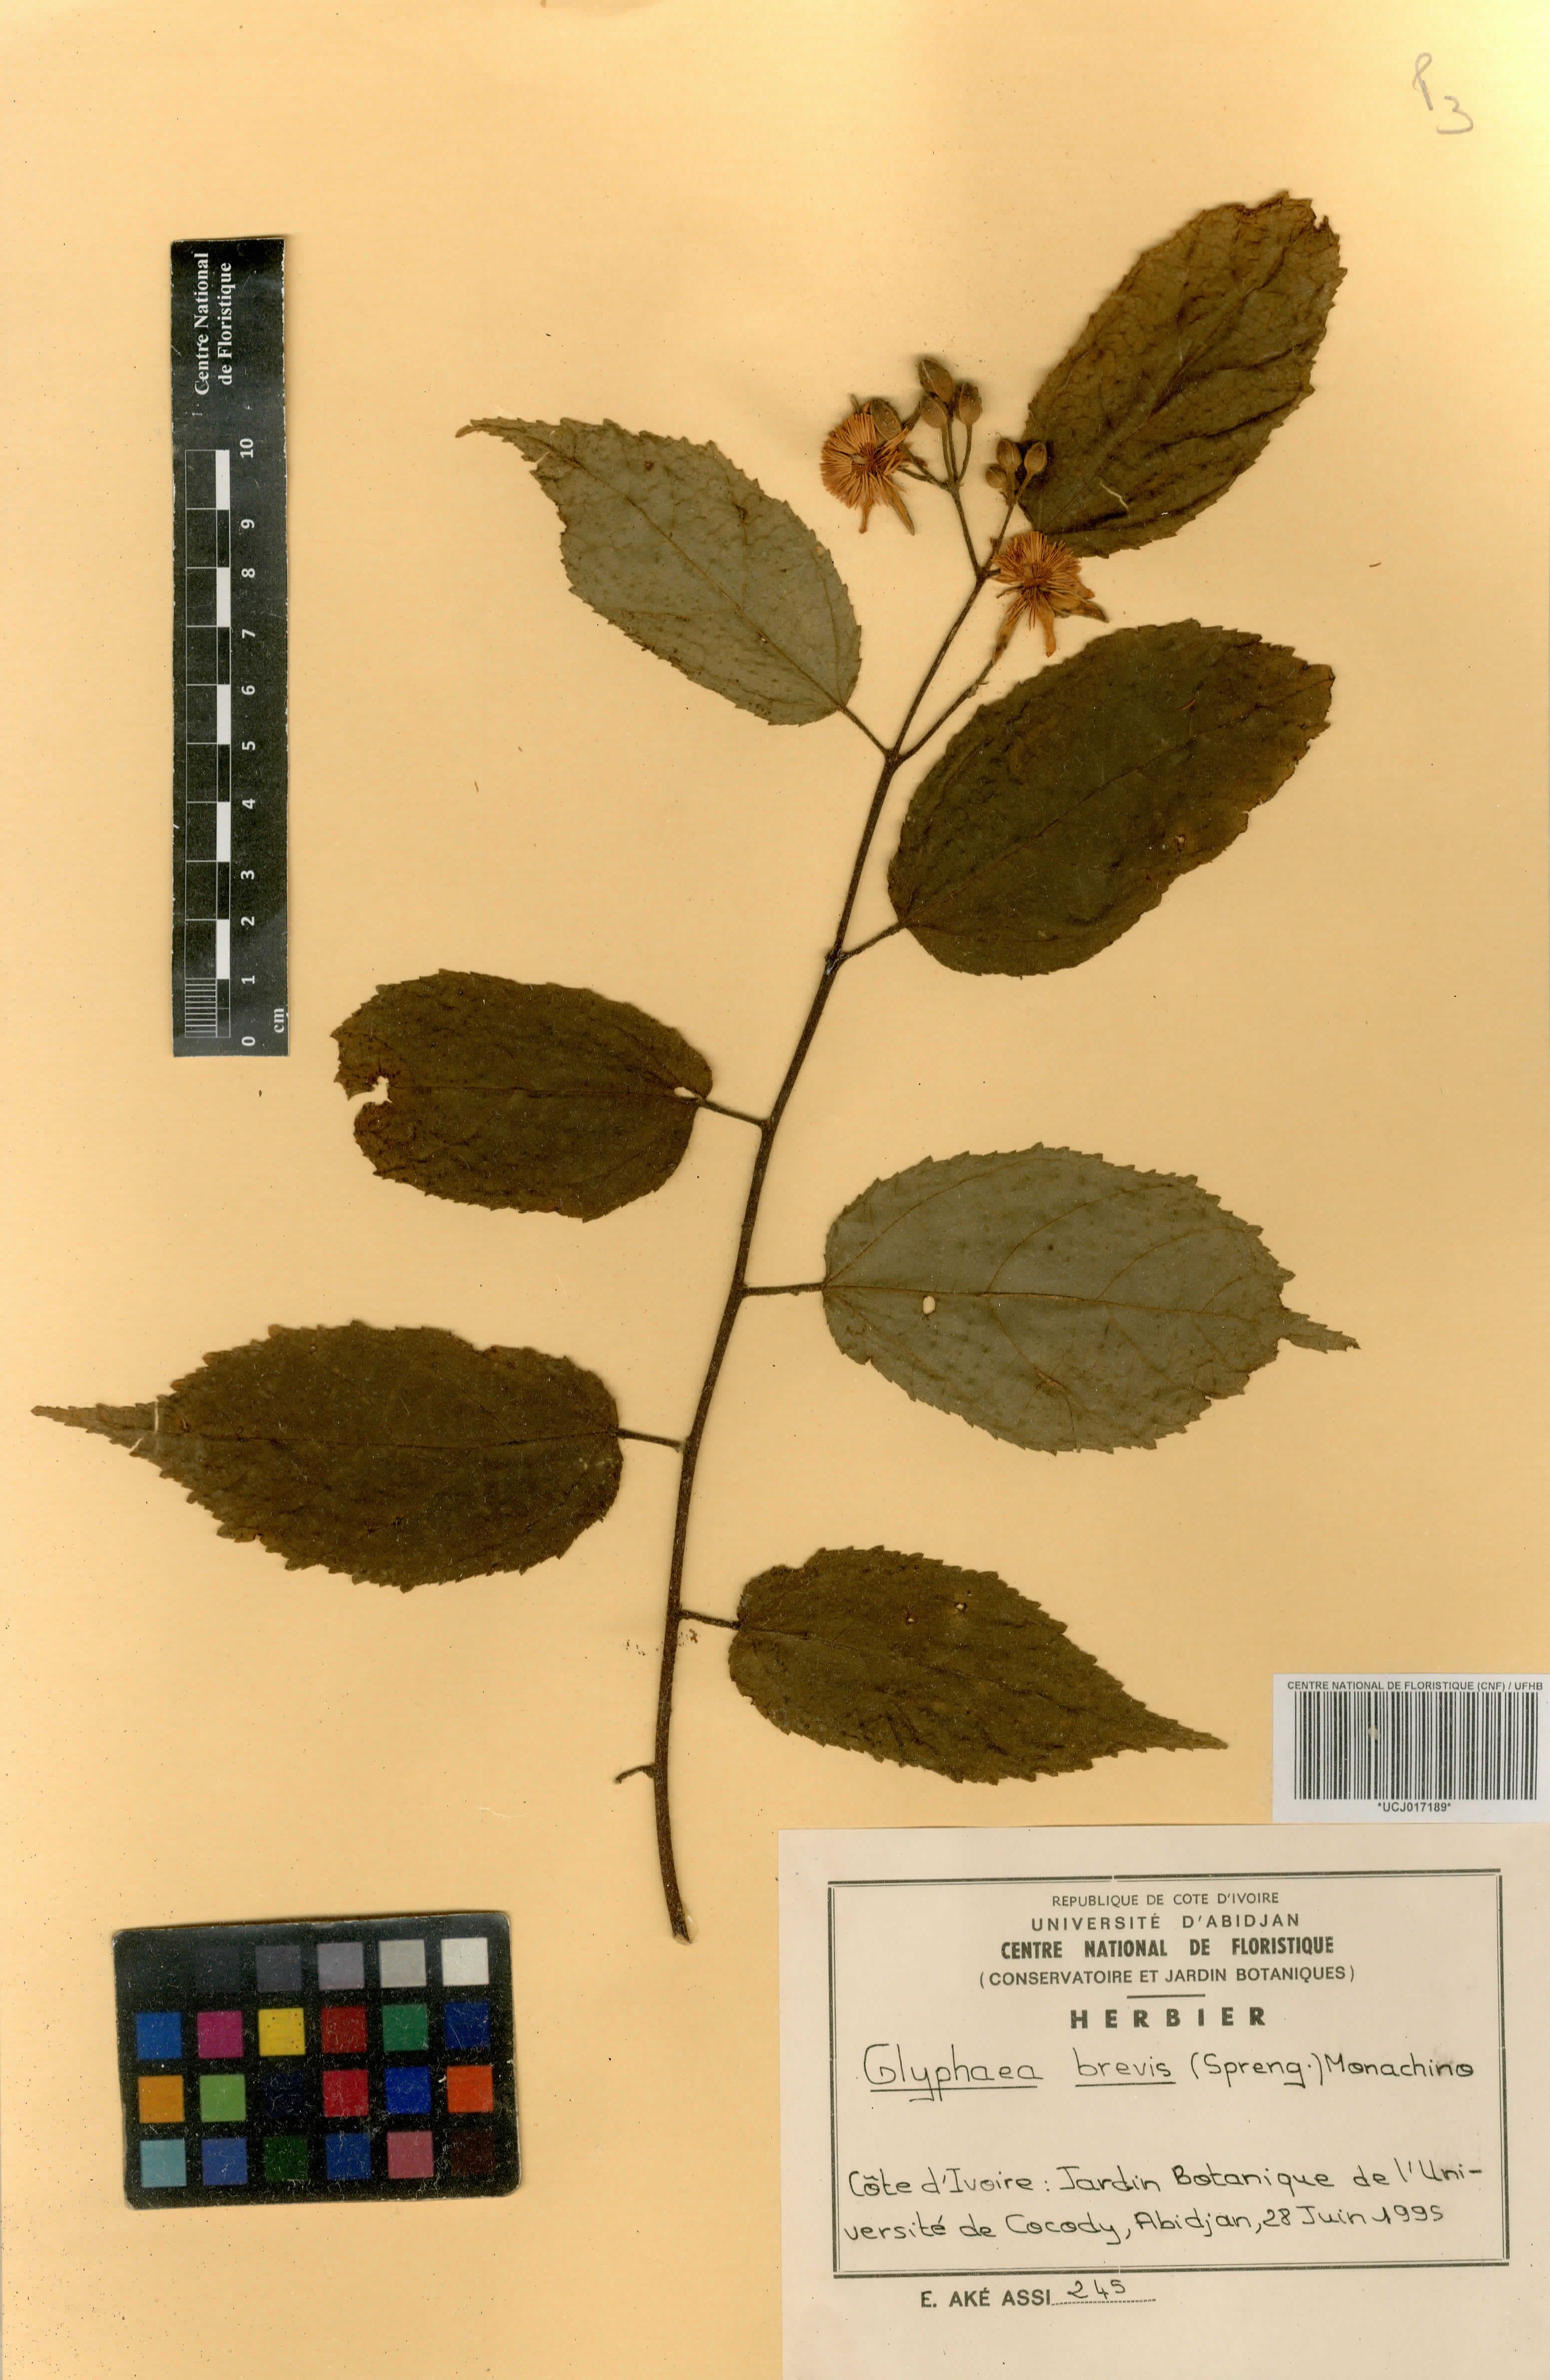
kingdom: Plantae
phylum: Tracheophyta
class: Magnoliopsida
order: Malvales
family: Malvaceae
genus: Glyphaea
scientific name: Glyphaea brevis
